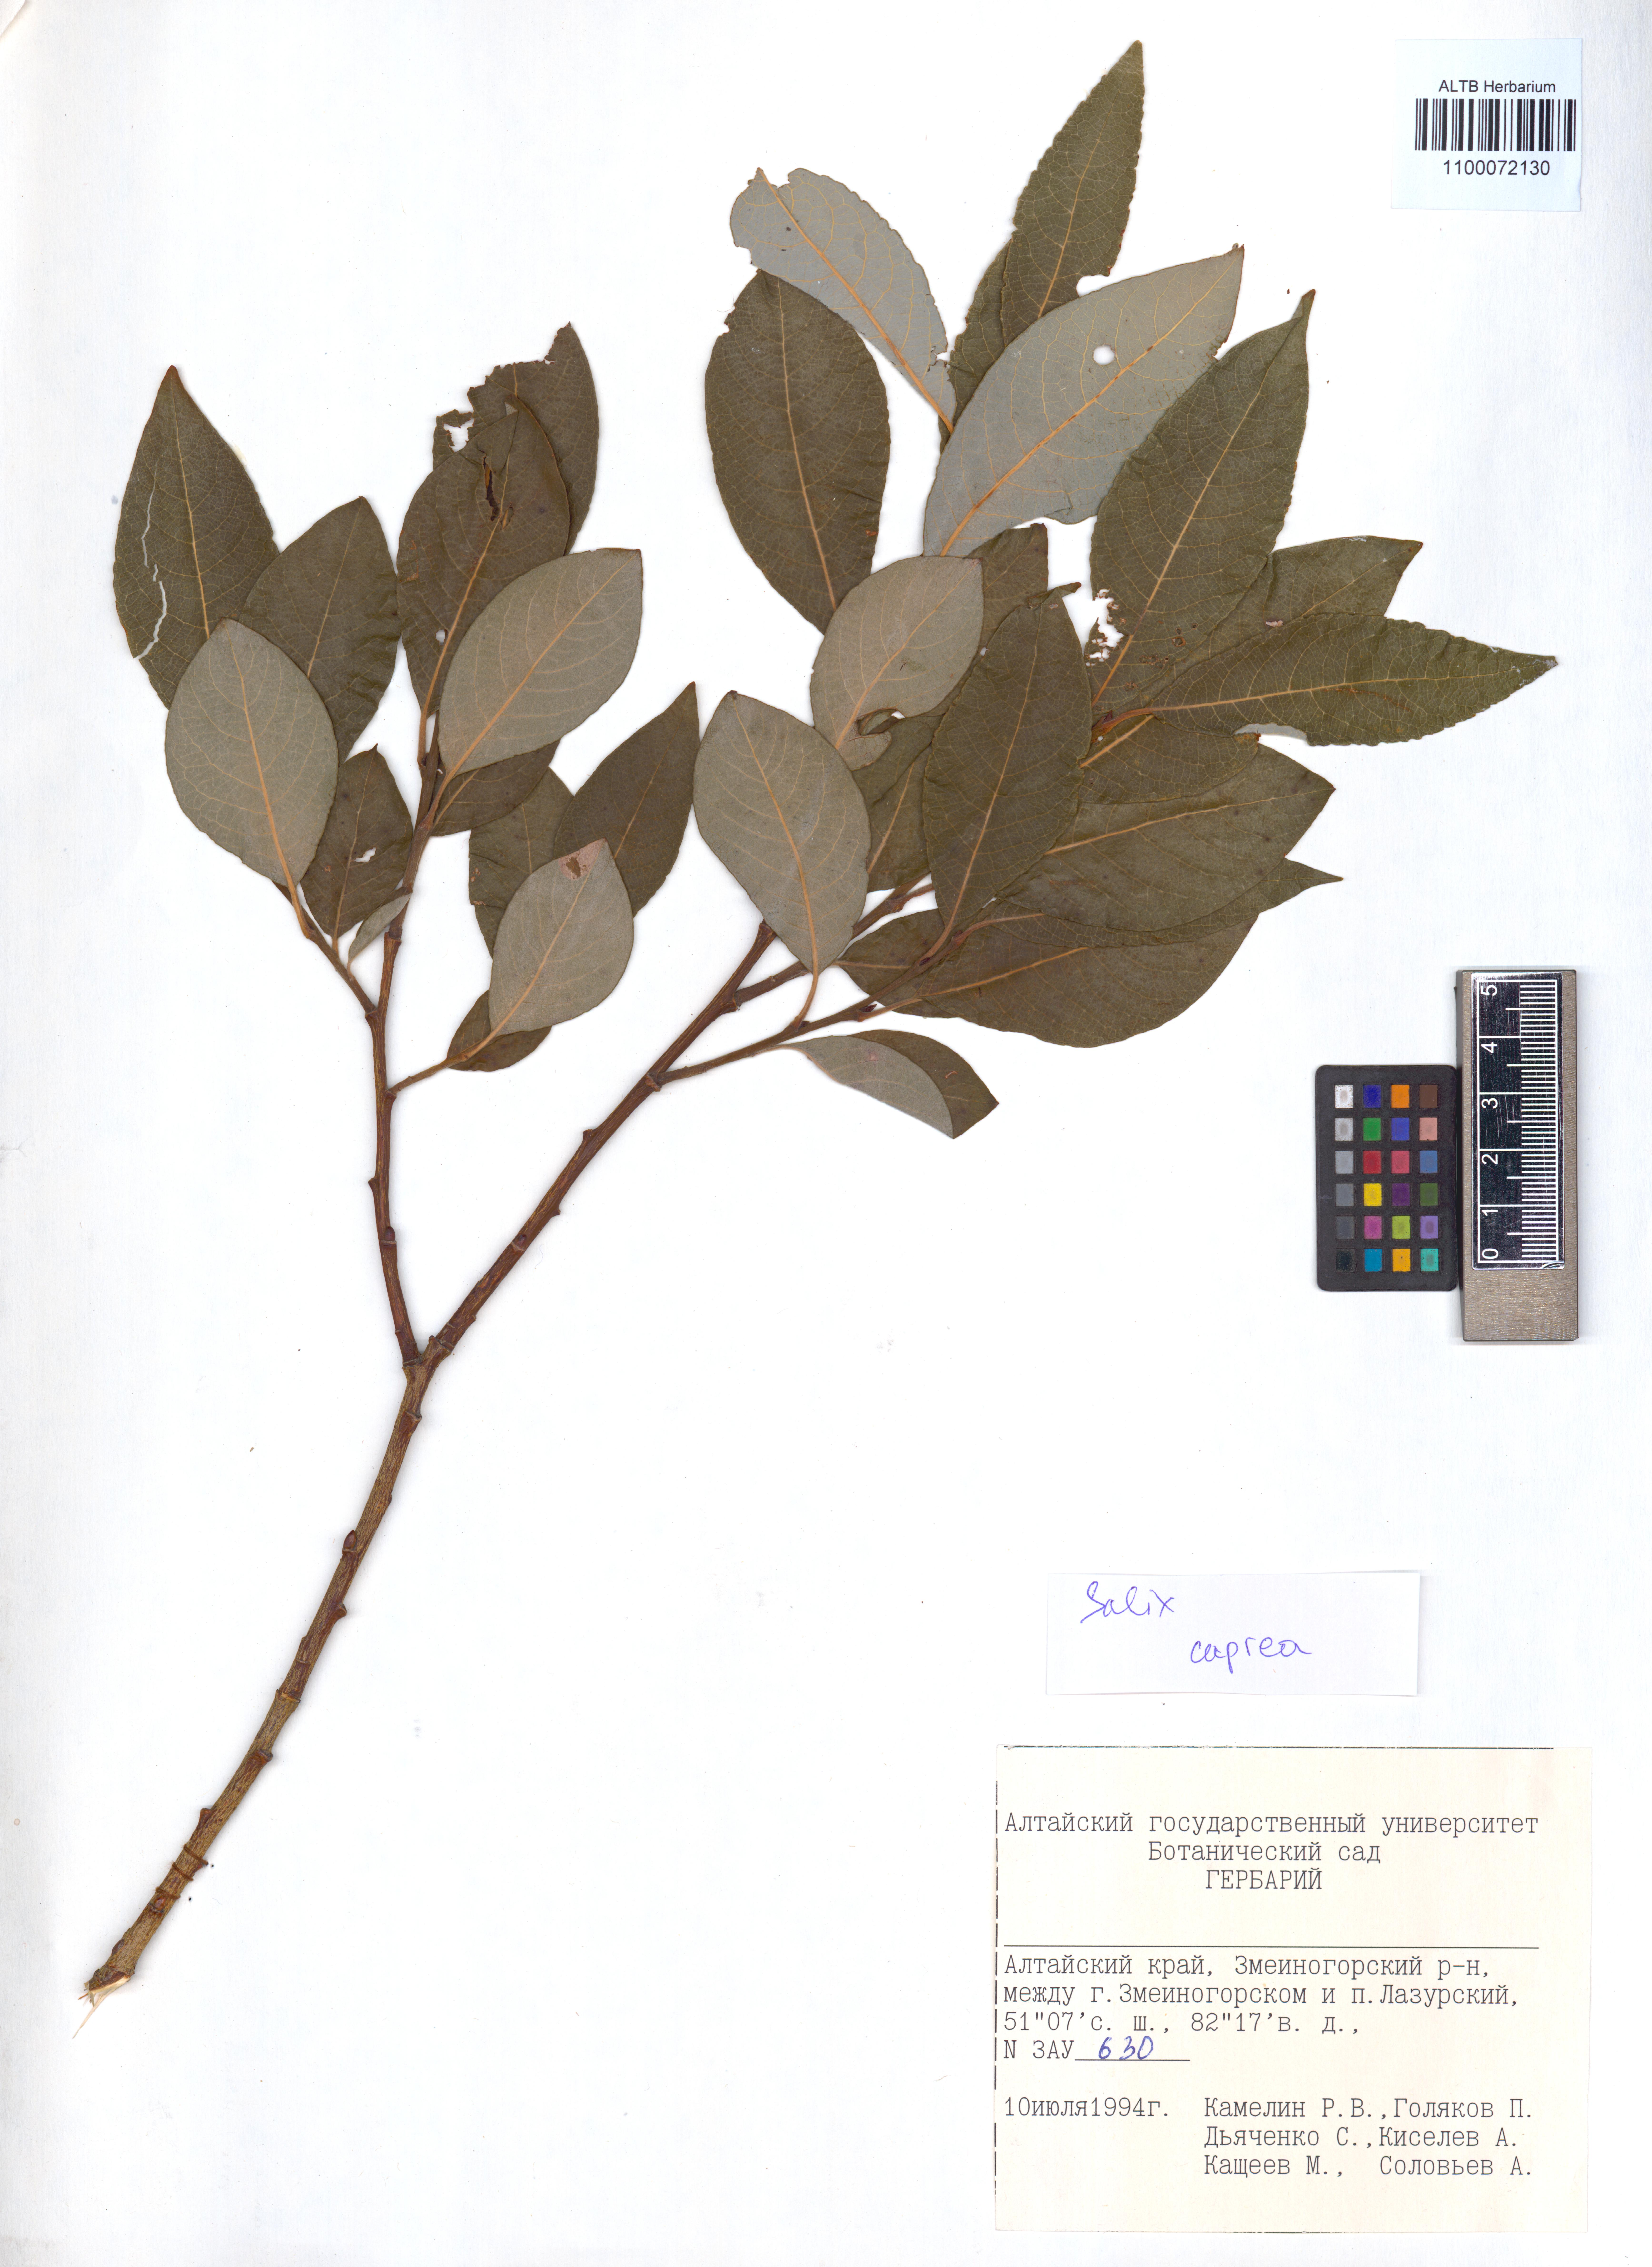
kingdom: Plantae
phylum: Tracheophyta
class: Magnoliopsida
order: Malpighiales
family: Salicaceae
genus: Salix
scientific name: Salix caprea
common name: Goat willow
